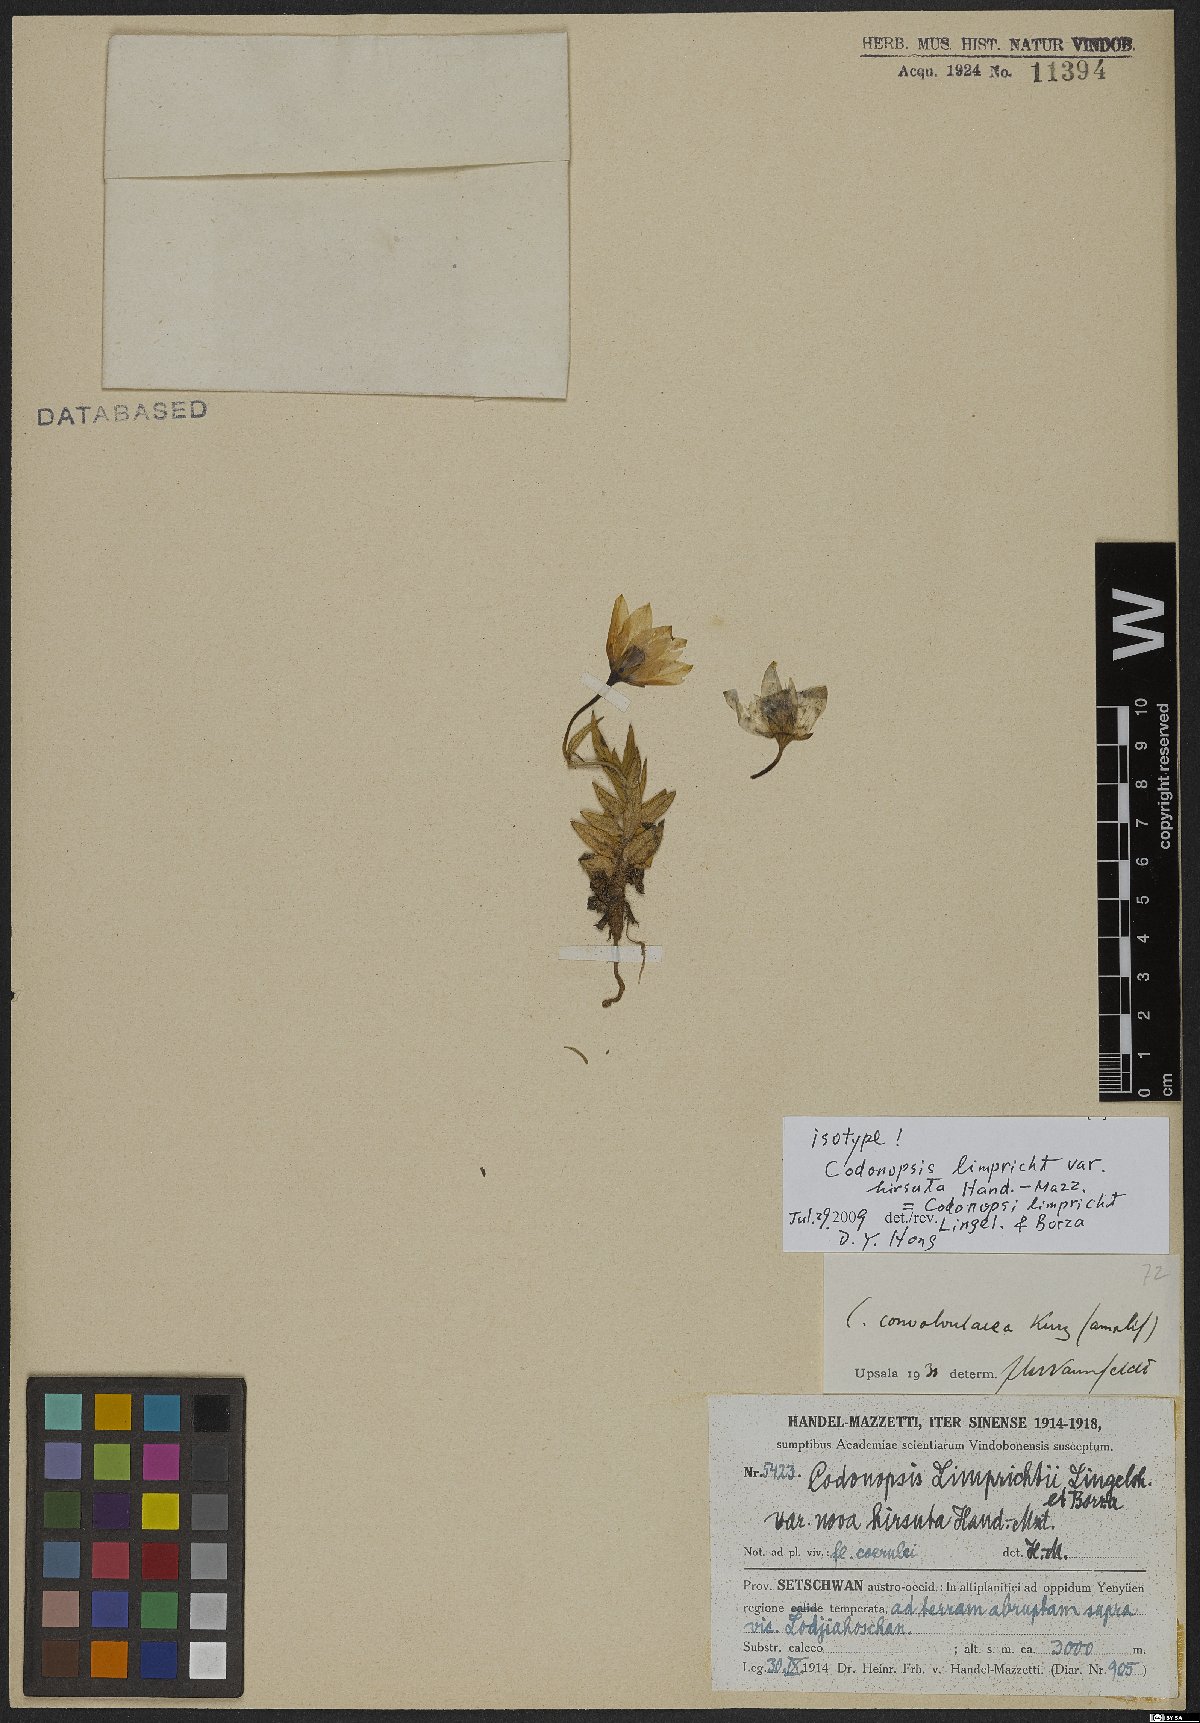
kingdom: Plantae
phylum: Tracheophyta
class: Magnoliopsida
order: Asterales
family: Campanulaceae
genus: Pseudocodon
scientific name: Pseudocodon convolvulaceus
